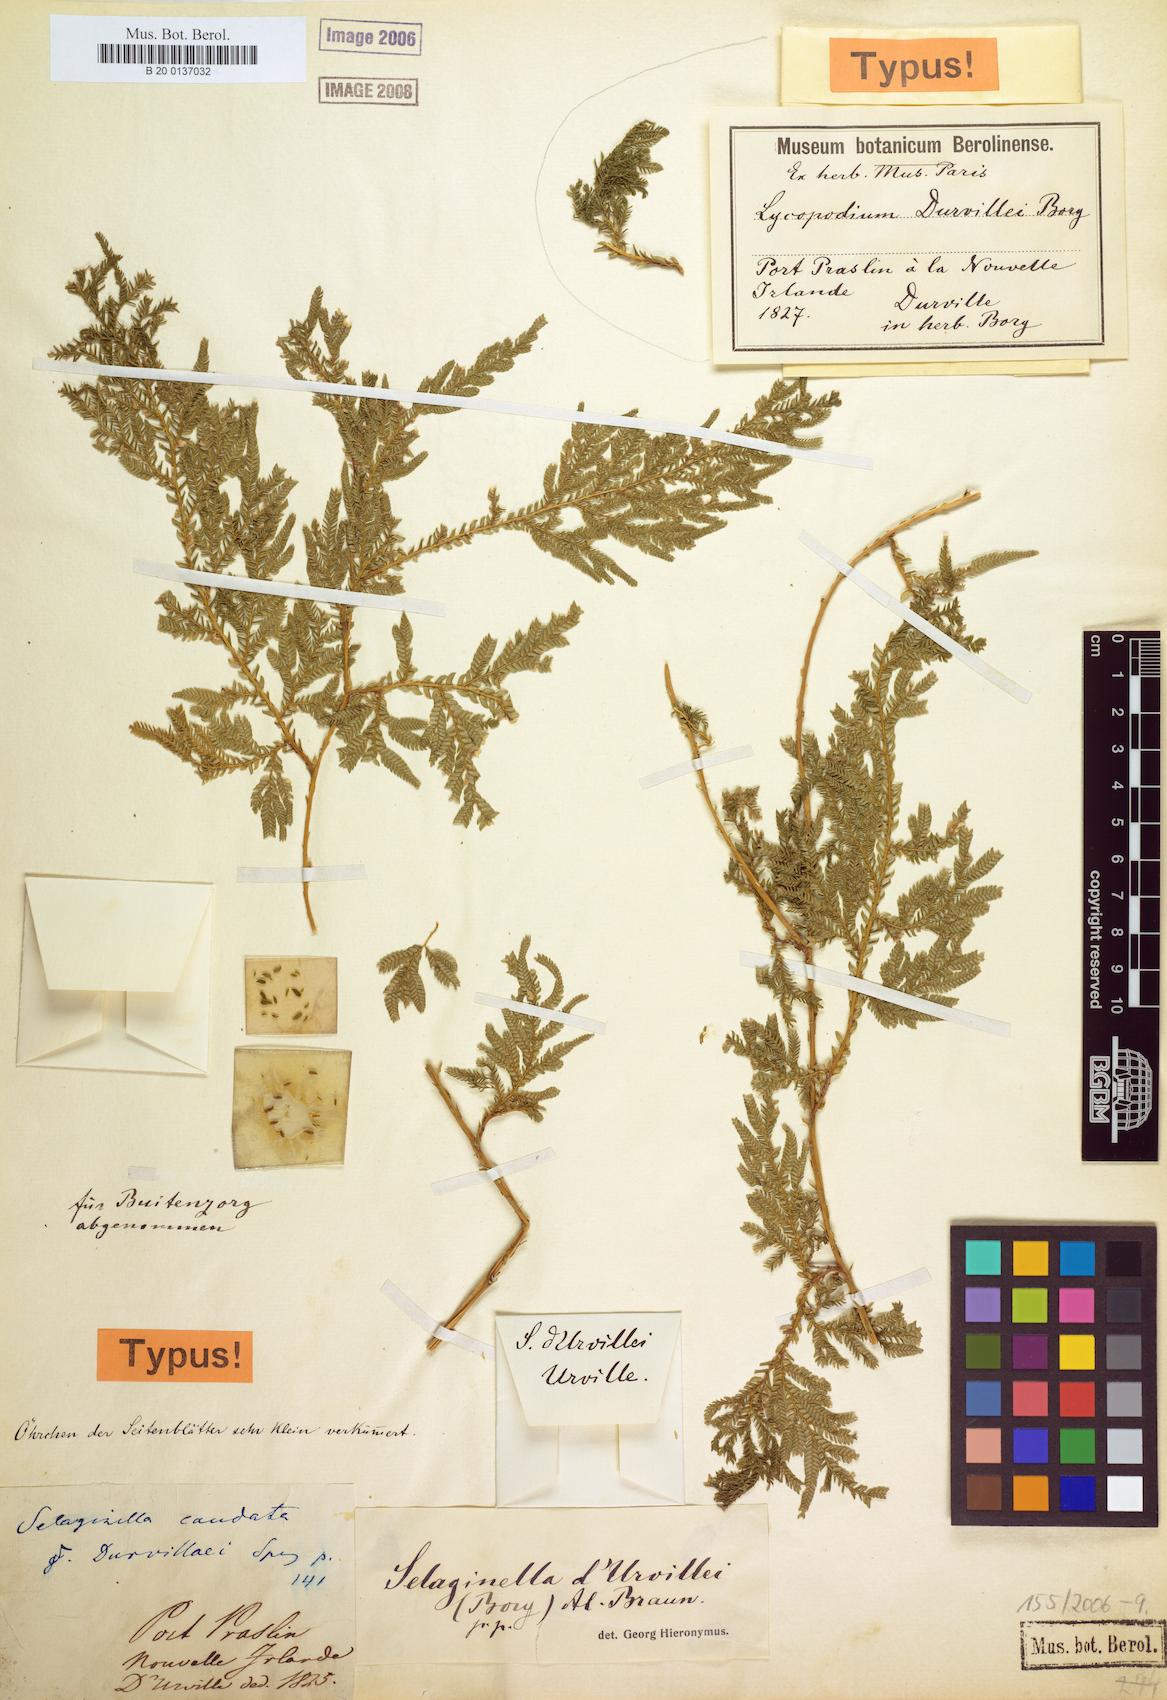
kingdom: Plantae
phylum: Tracheophyta
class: Lycopodiopsida
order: Selaginellales
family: Selaginellaceae
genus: Selaginella
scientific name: Selaginella plana
